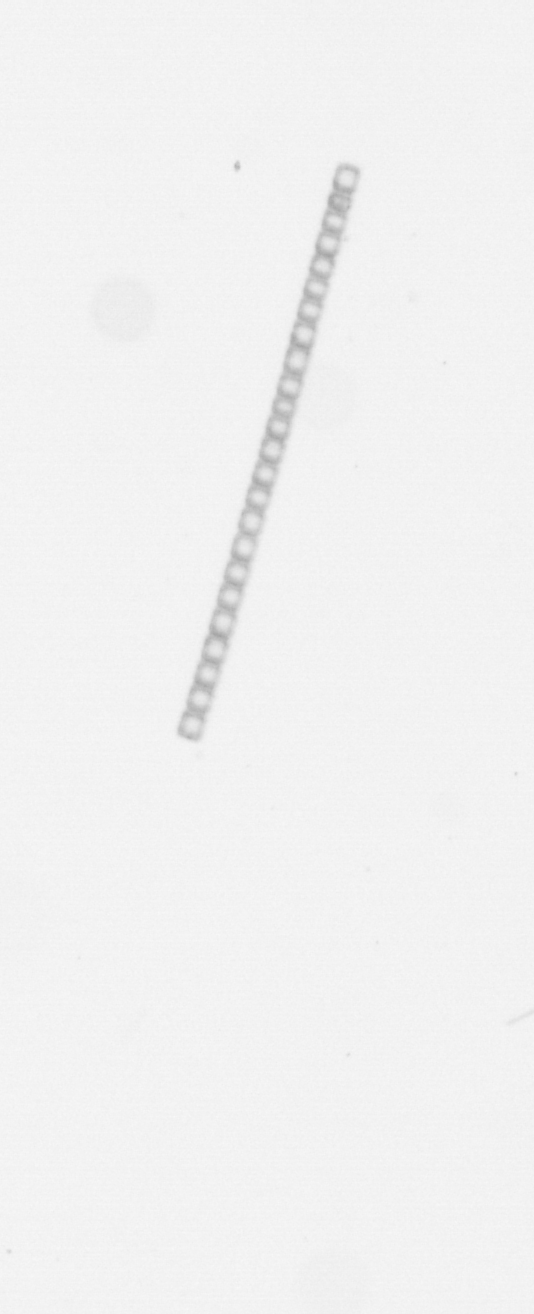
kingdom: Chromista
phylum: Ochrophyta
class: Bacillariophyceae
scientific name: Bacillariophyceae
